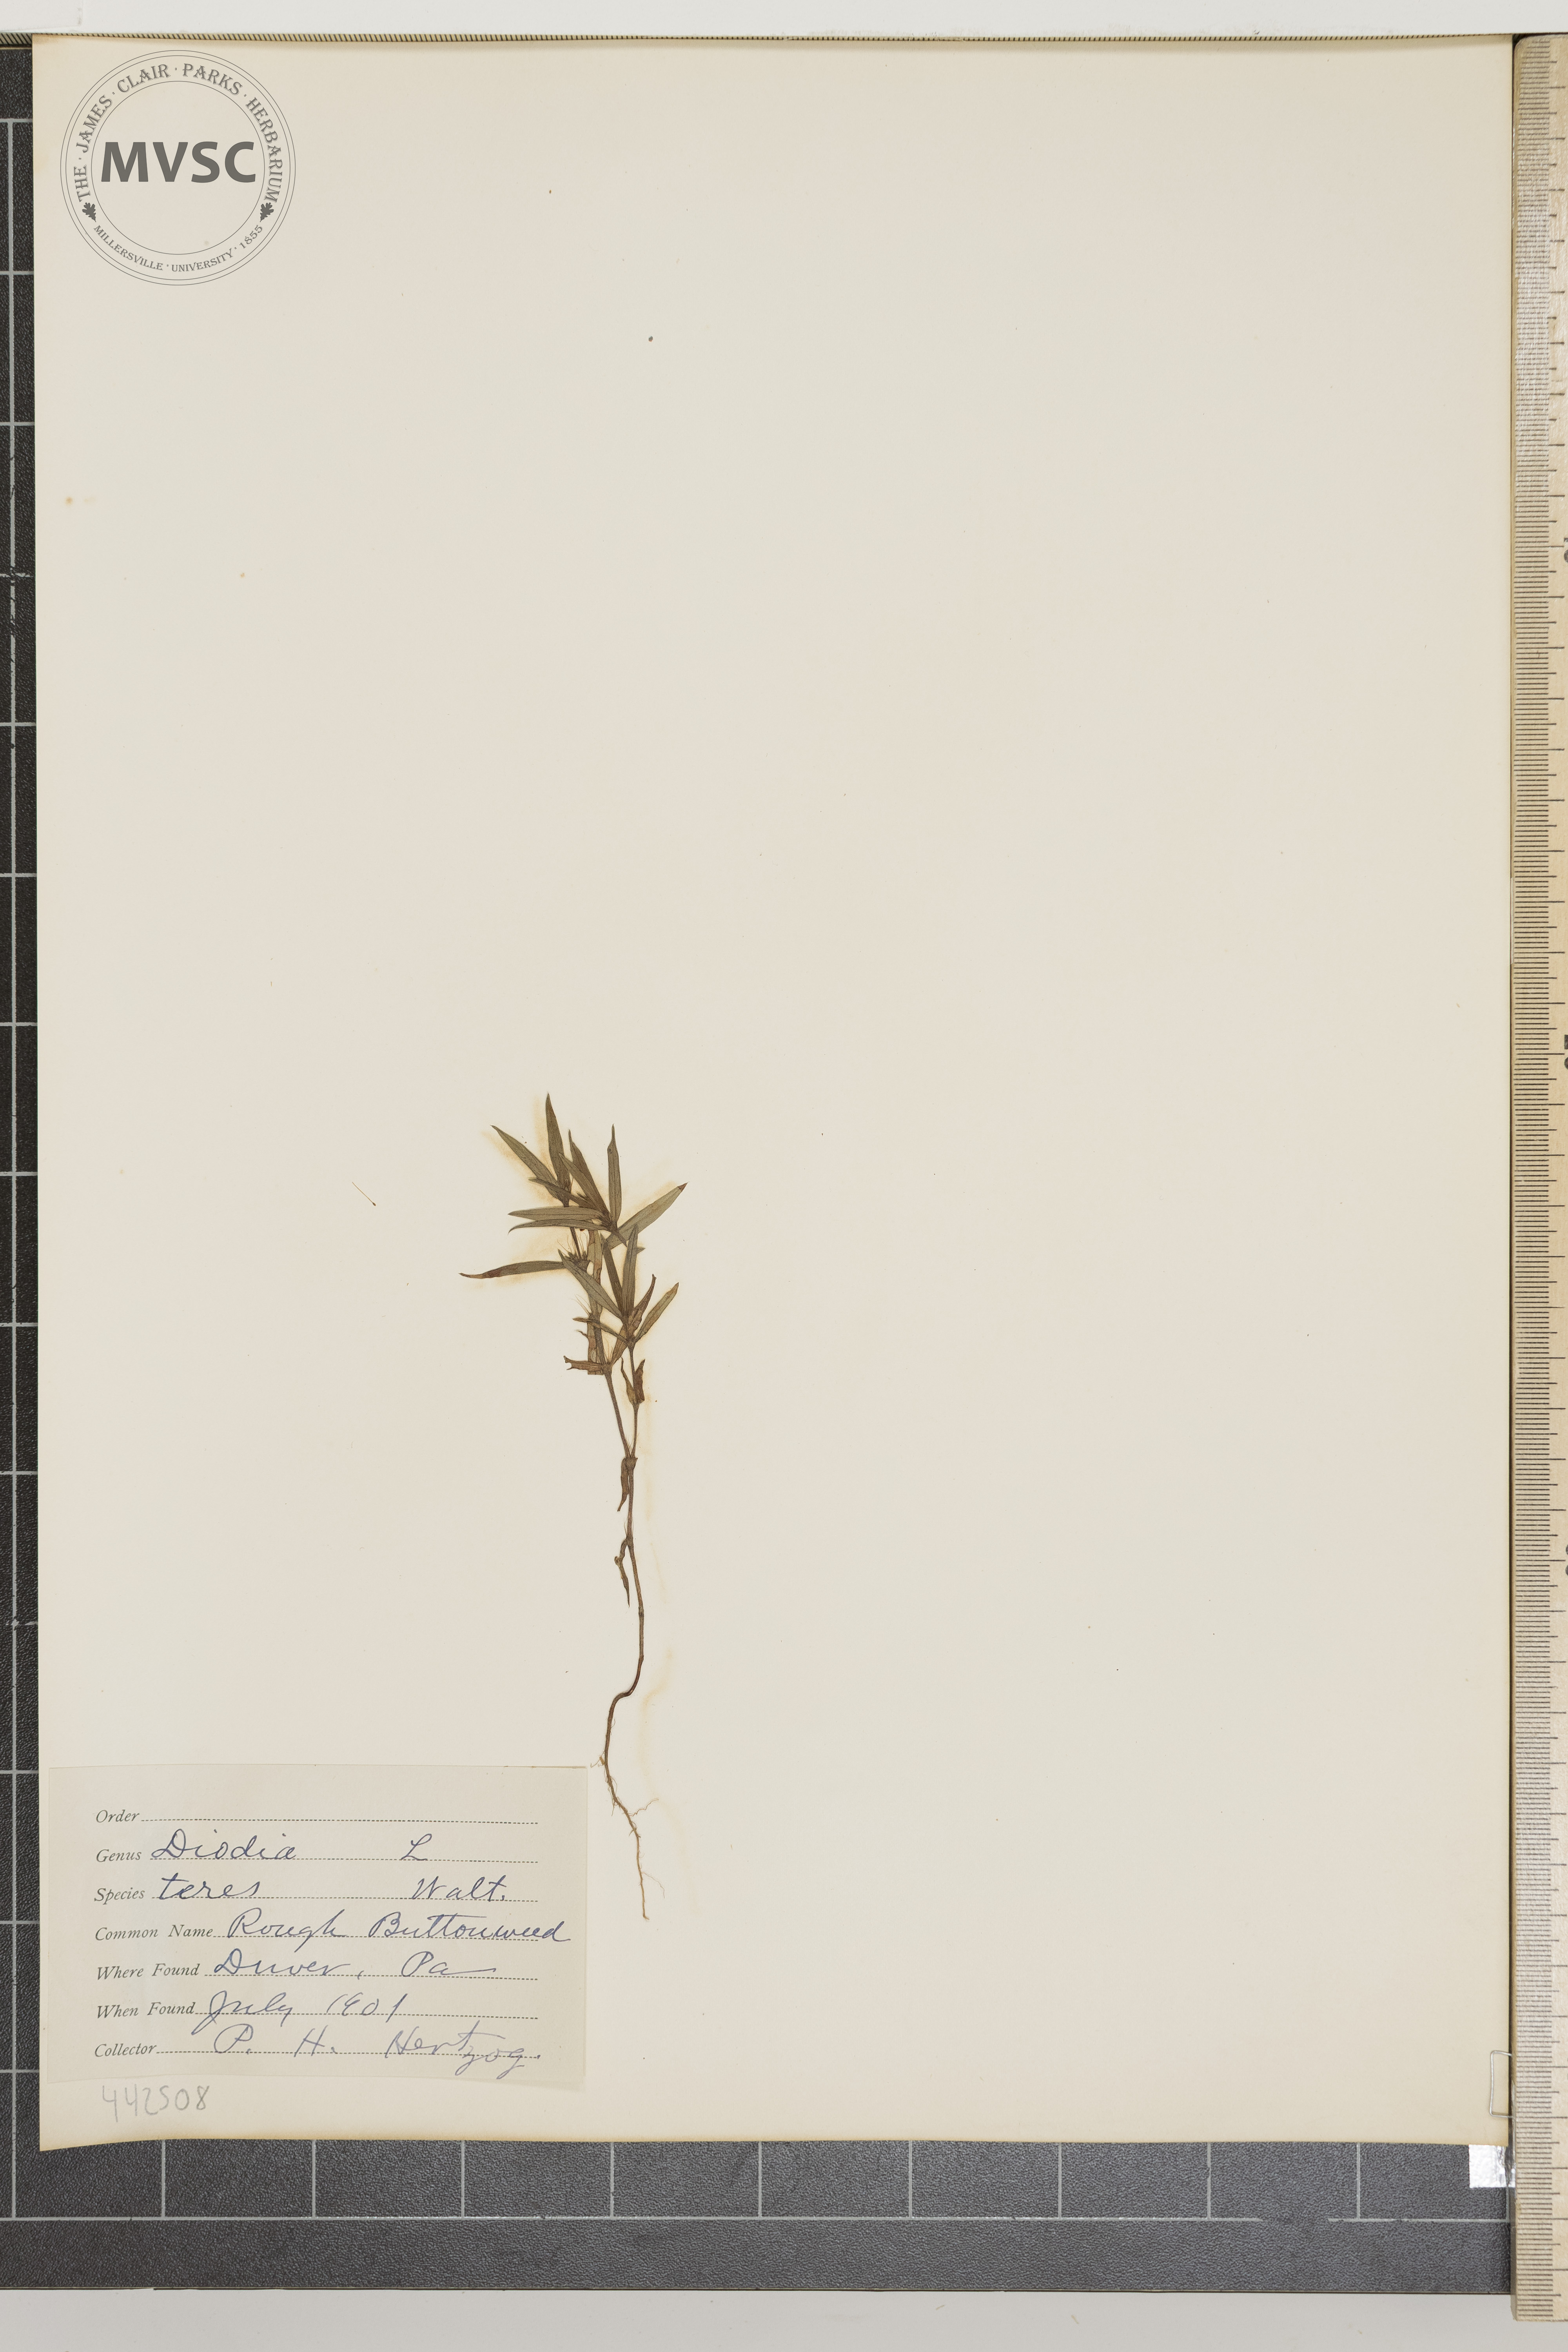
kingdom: Plantae
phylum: Tracheophyta
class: Magnoliopsida
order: Gentianales
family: Rubiaceae
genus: Hexasepalum
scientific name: Hexasepalum teres
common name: Rough buttonweed
